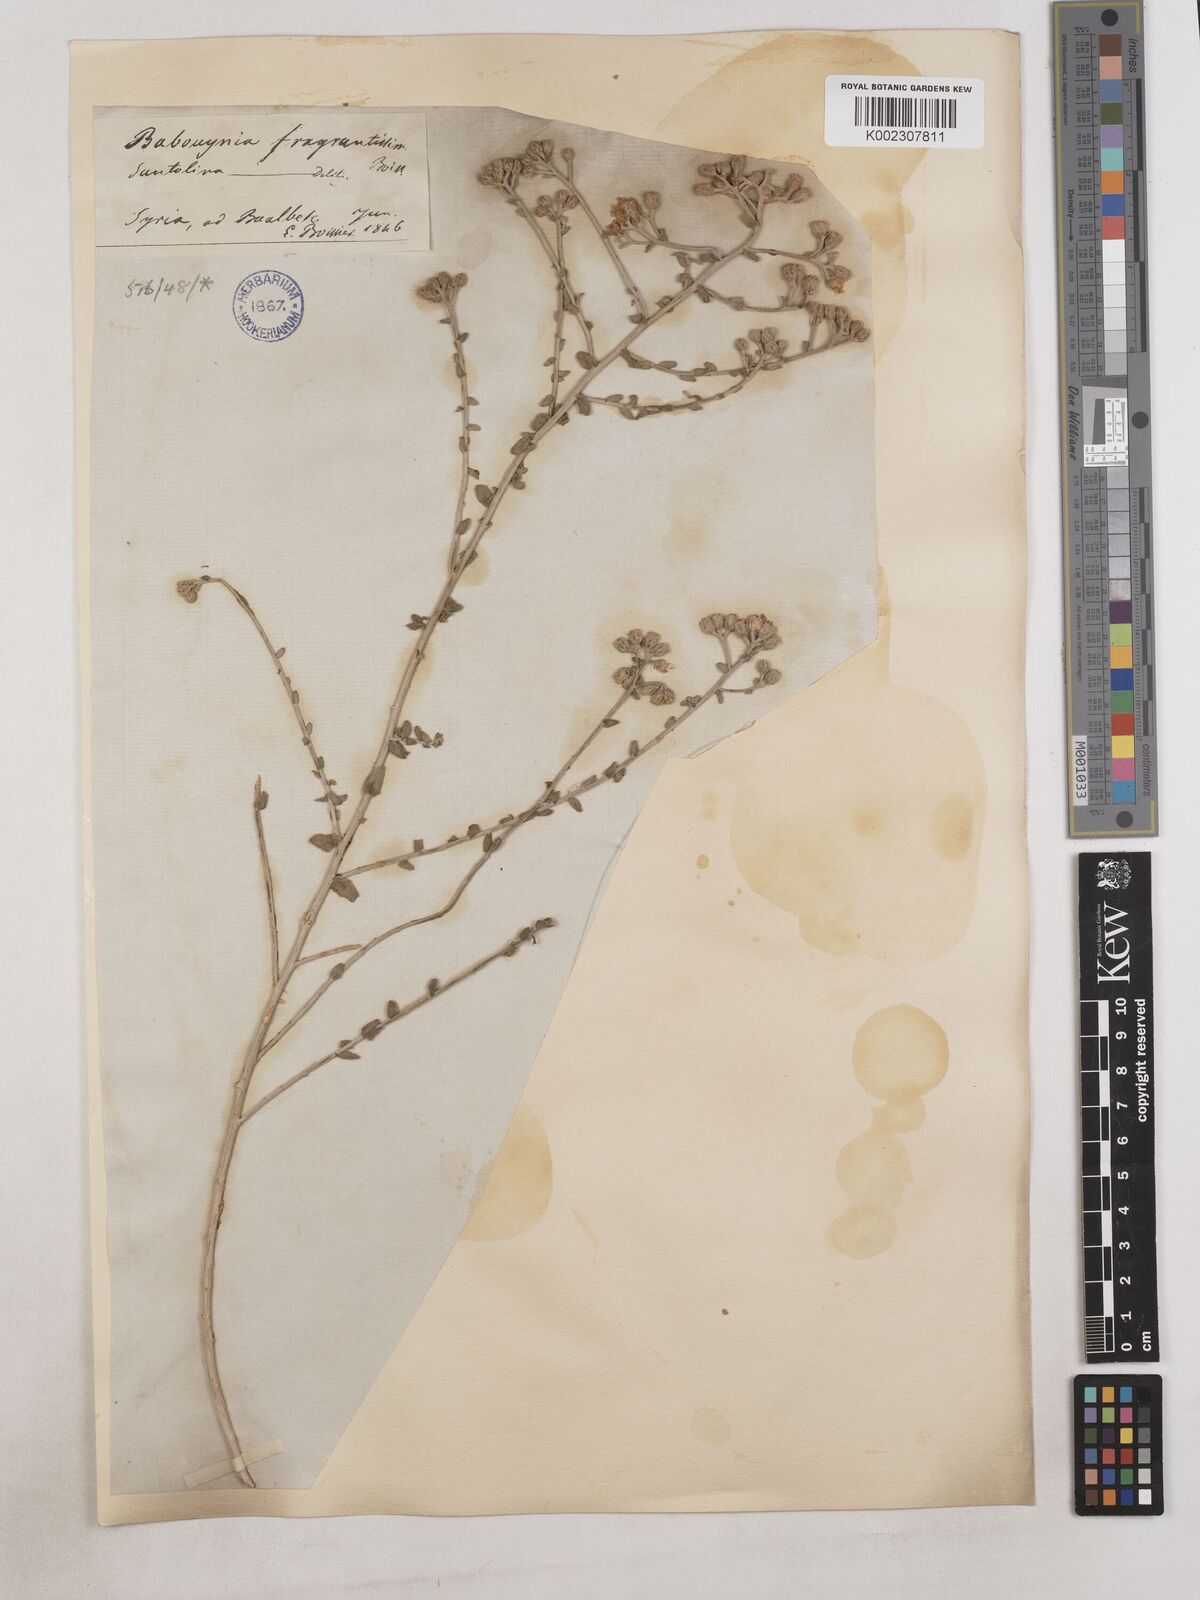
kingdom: Plantae
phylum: Tracheophyta
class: Magnoliopsida
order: Asterales
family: Asteraceae
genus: Achillea
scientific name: Achillea fragrantissima
